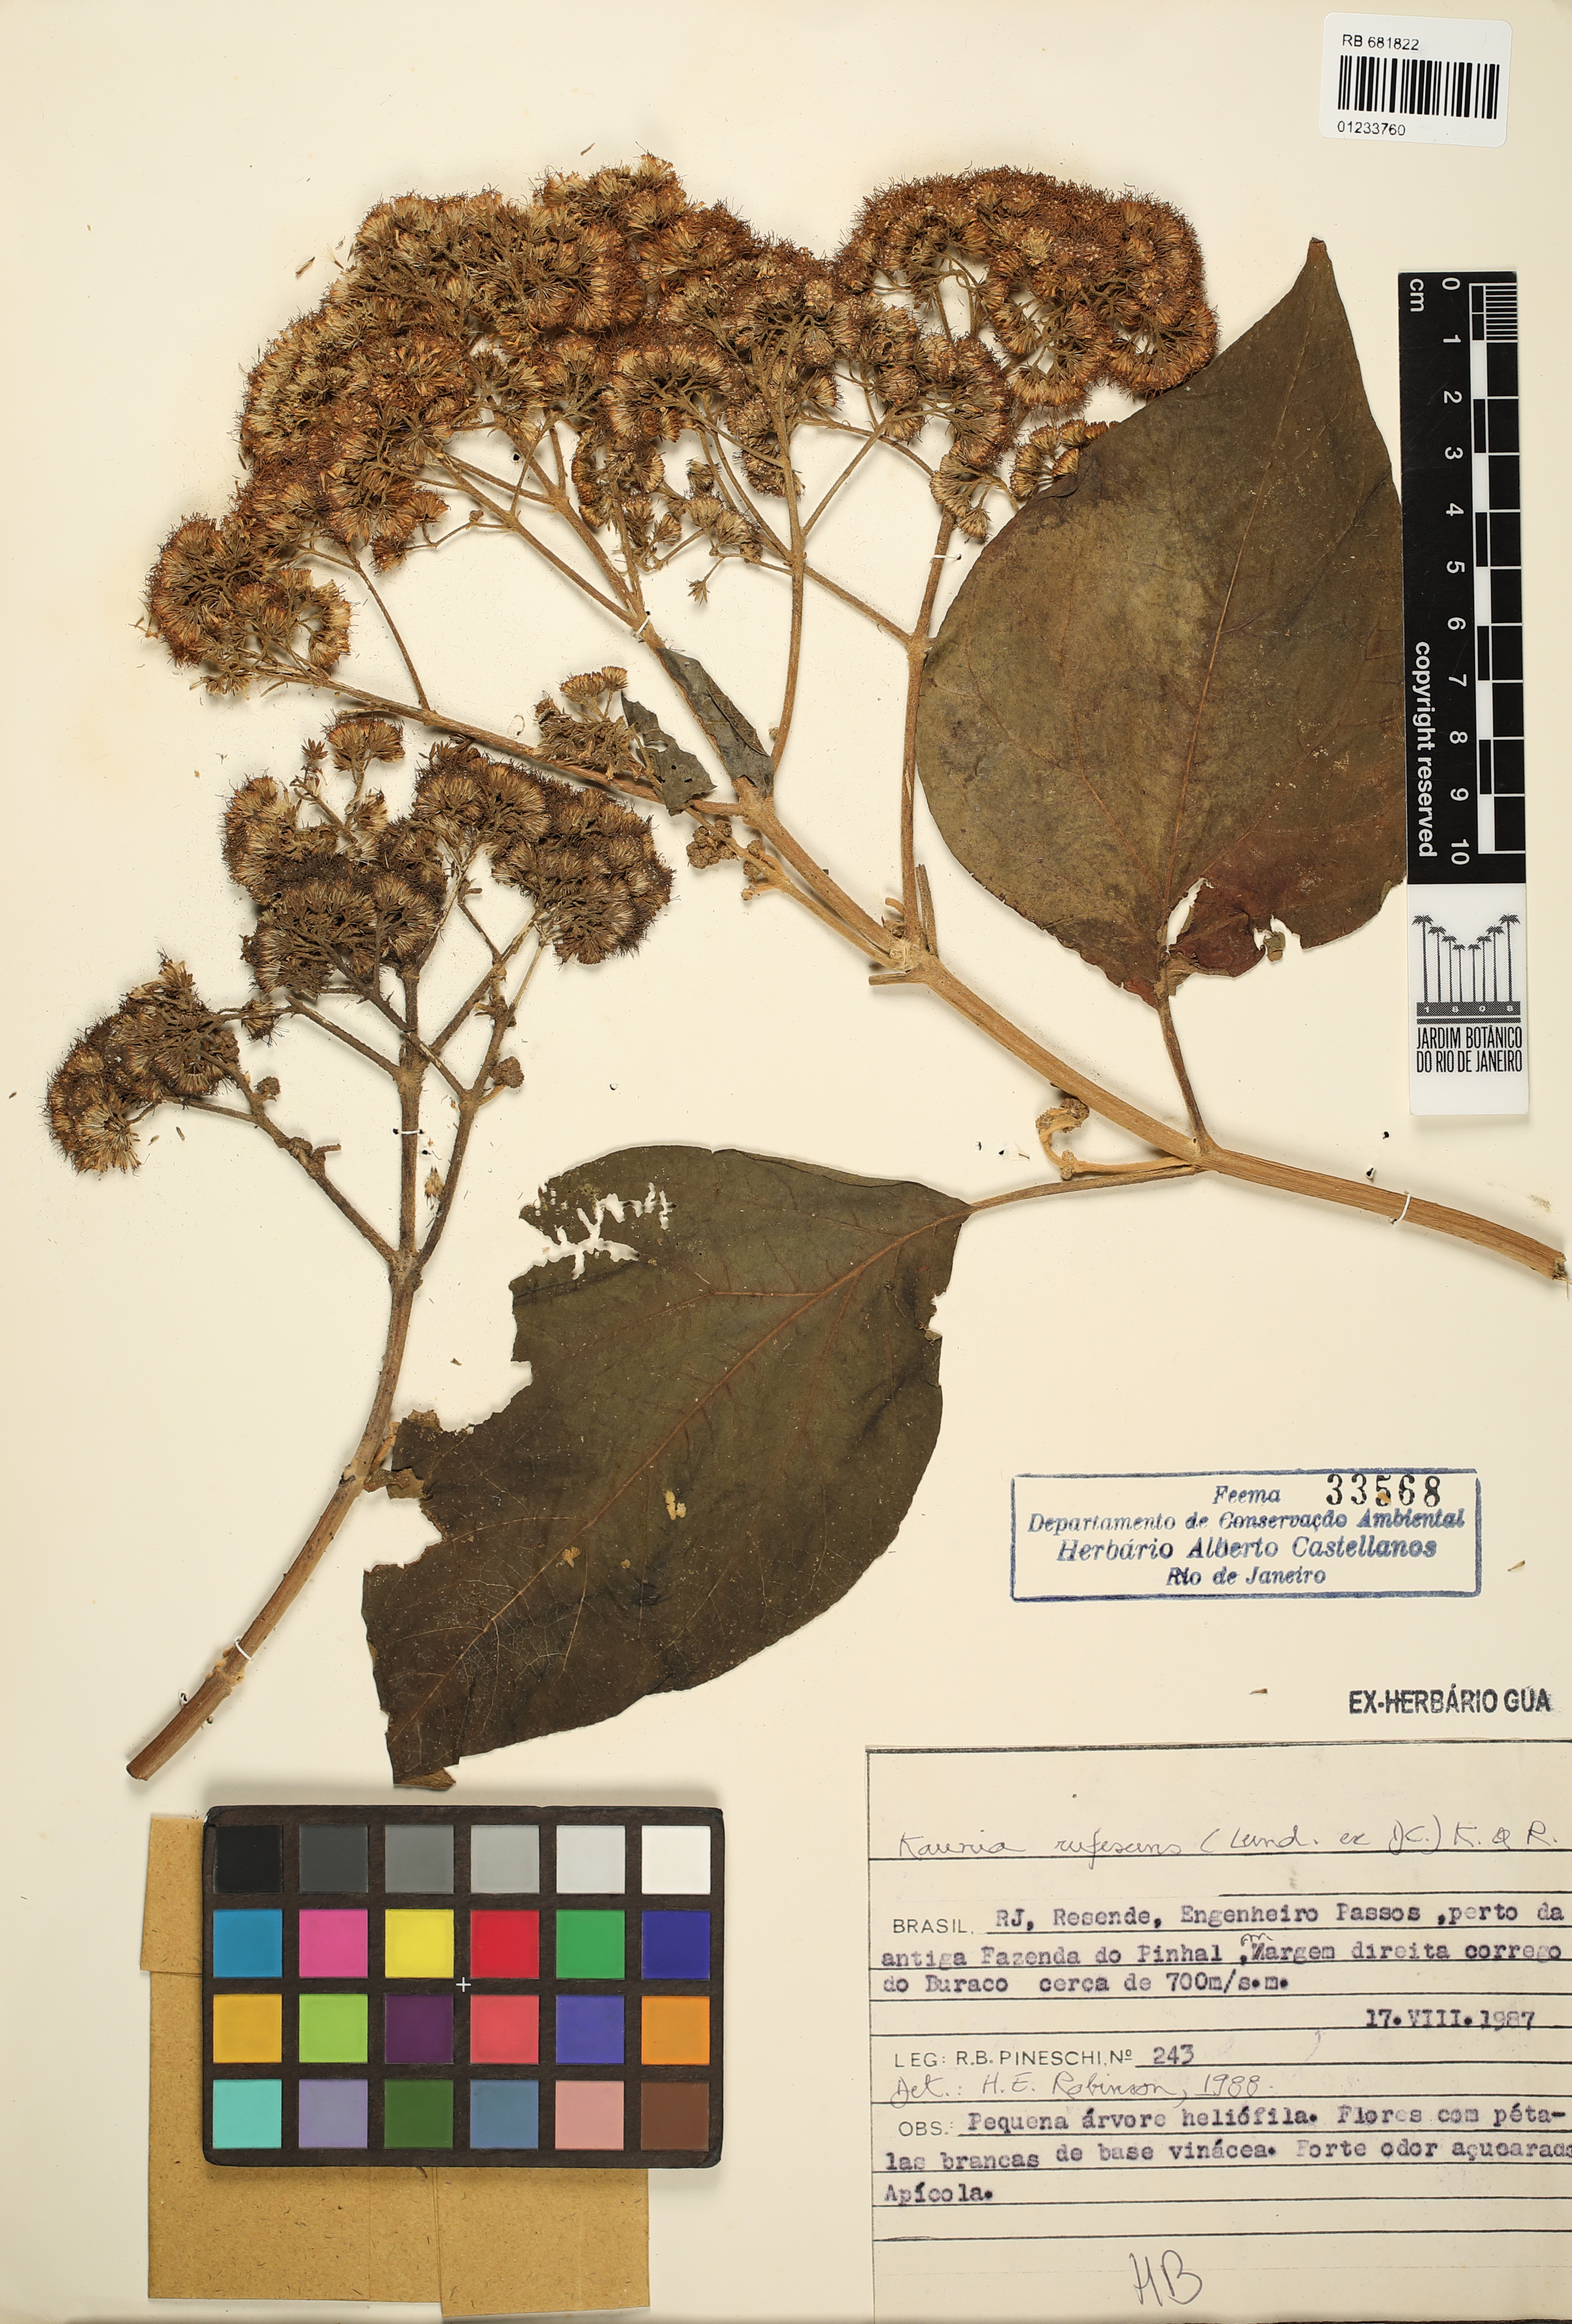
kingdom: Plantae
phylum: Tracheophyta
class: Magnoliopsida
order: Asterales
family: Asteraceae
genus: Kaunia
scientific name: Kaunia rufescens
